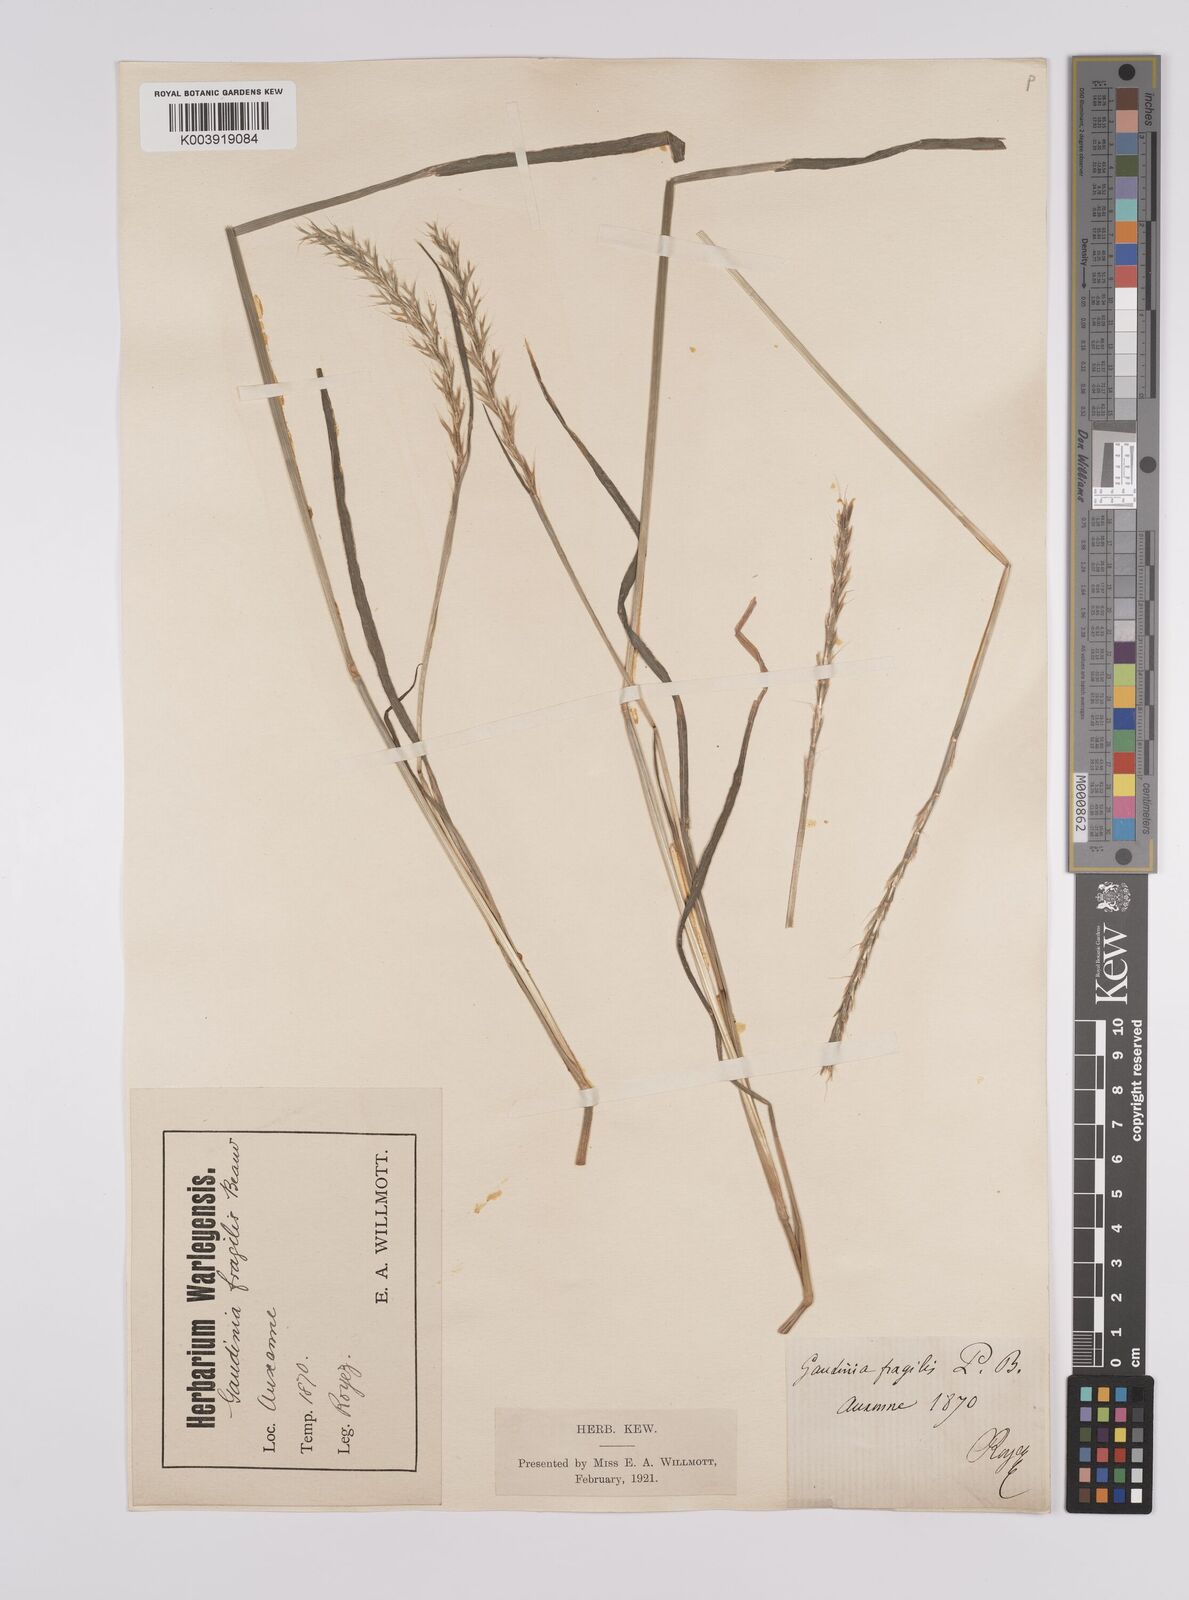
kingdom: Plantae
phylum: Tracheophyta
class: Liliopsida
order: Poales
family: Poaceae
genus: Gaudinia
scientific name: Gaudinia fragilis
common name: French oat-grass
